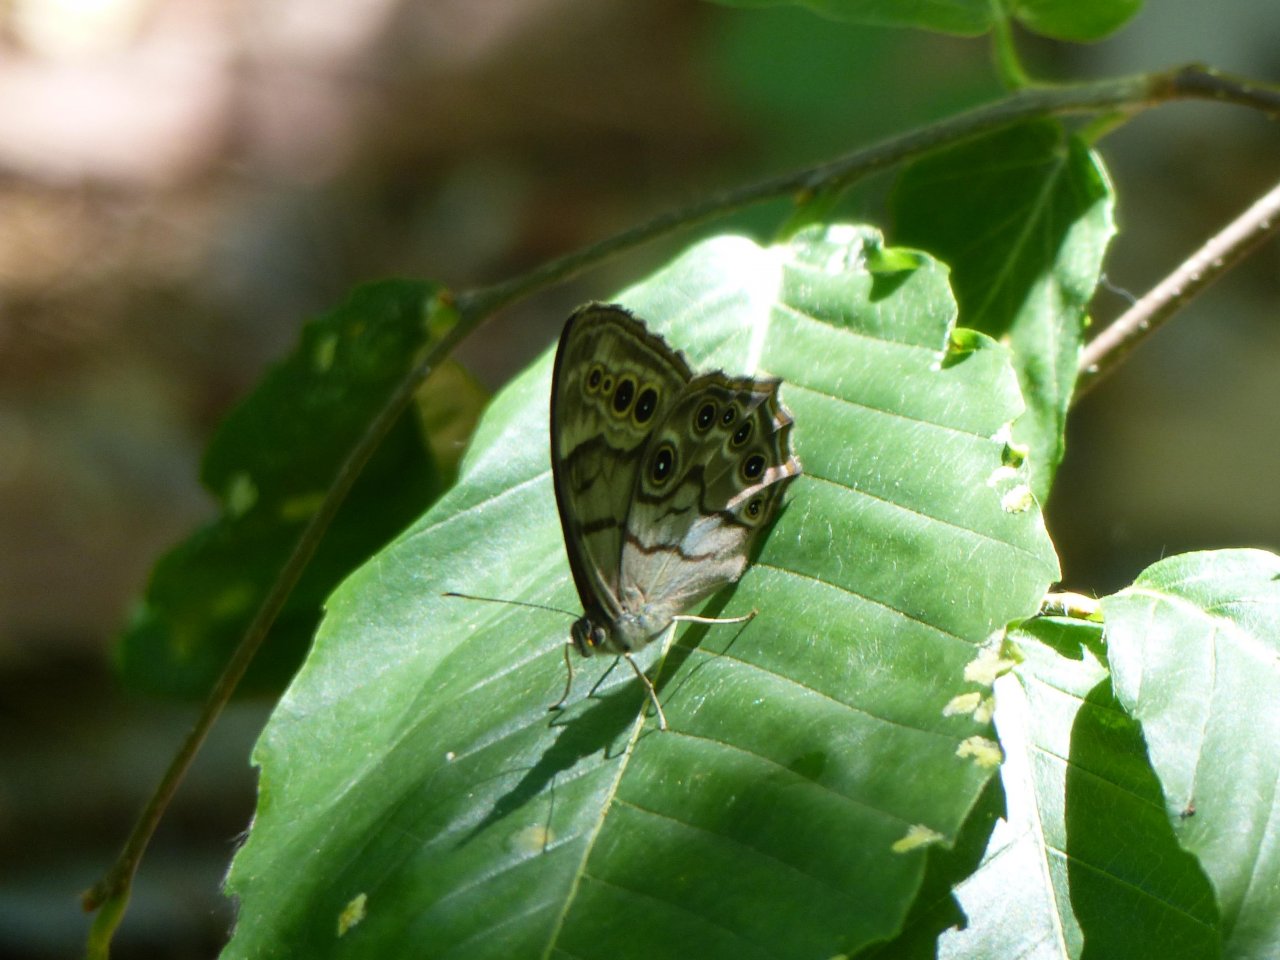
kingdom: Animalia
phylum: Arthropoda
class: Insecta
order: Lepidoptera
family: Nymphalidae
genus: Lethe
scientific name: Lethe anthedon
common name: Northern Pearly-Eye
